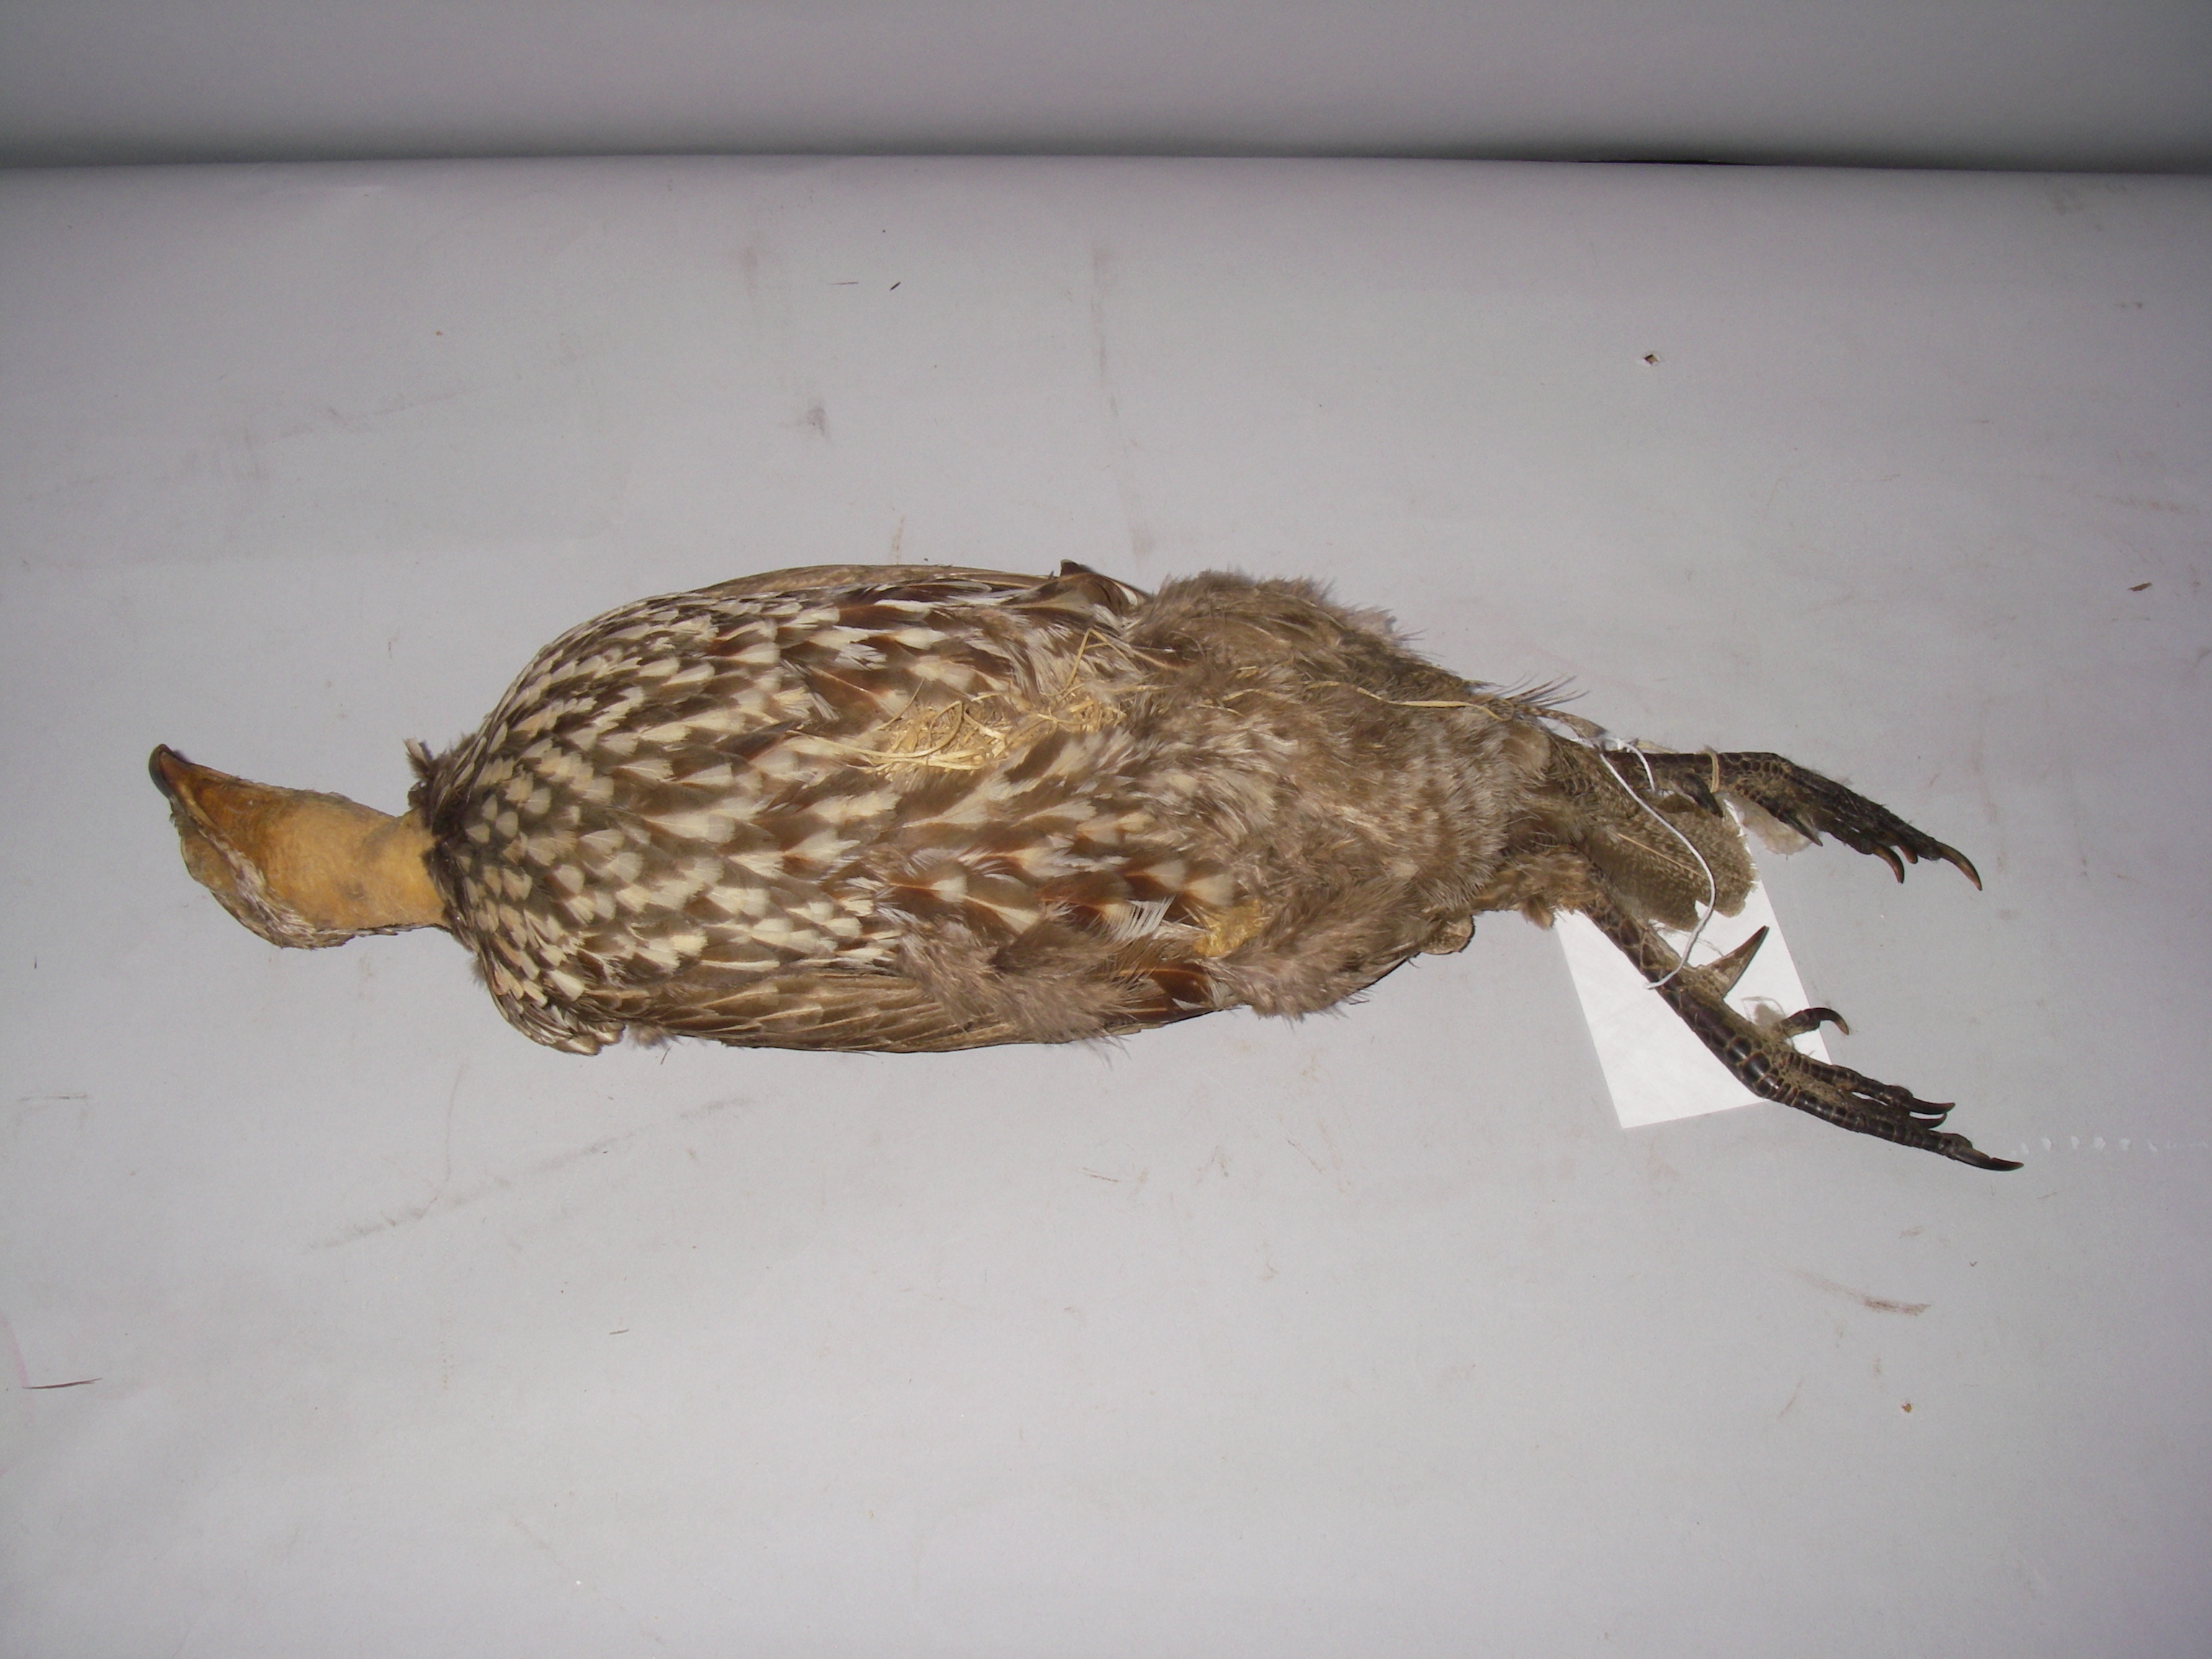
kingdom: Animalia
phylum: Chordata
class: Aves
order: Galliformes
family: Phasianidae
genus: Pternistis
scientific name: Pternistis leucoscepus
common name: Yellow-necked spurfowl
